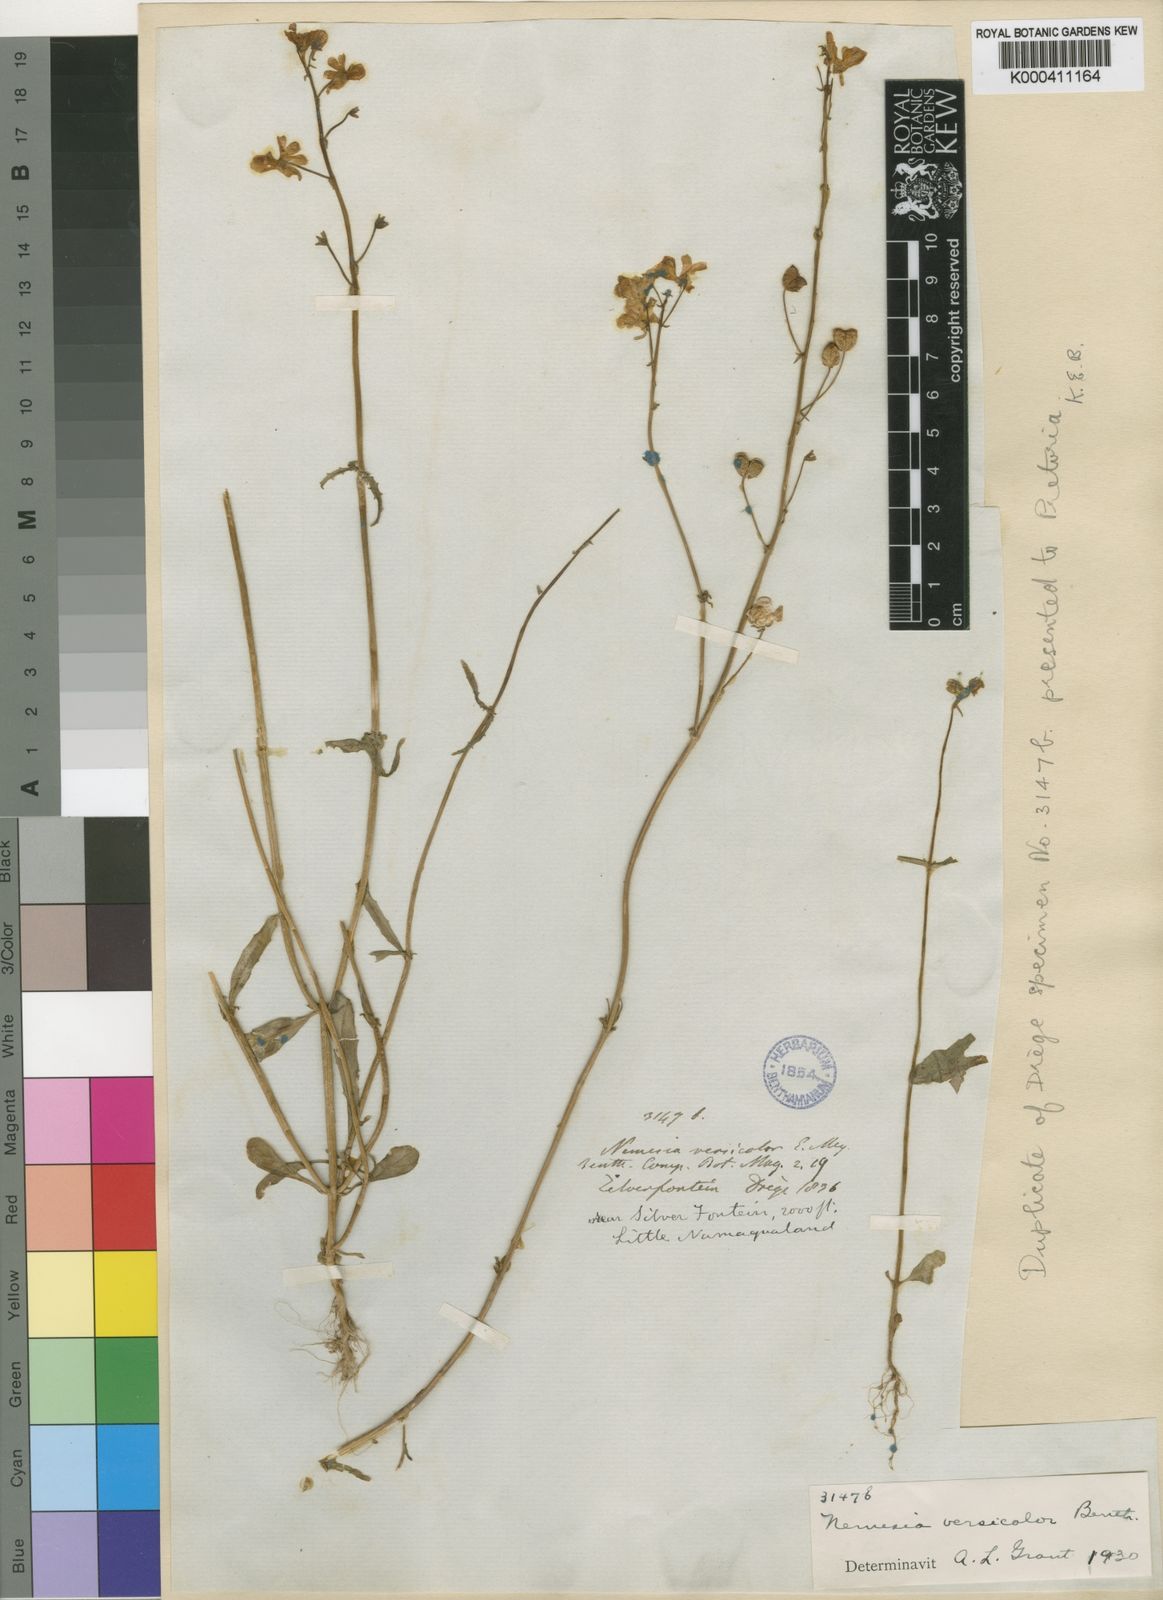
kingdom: Plantae
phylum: Tracheophyta
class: Magnoliopsida
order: Lamiales
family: Scrophulariaceae
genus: Nemesia
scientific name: Nemesia versicolor
